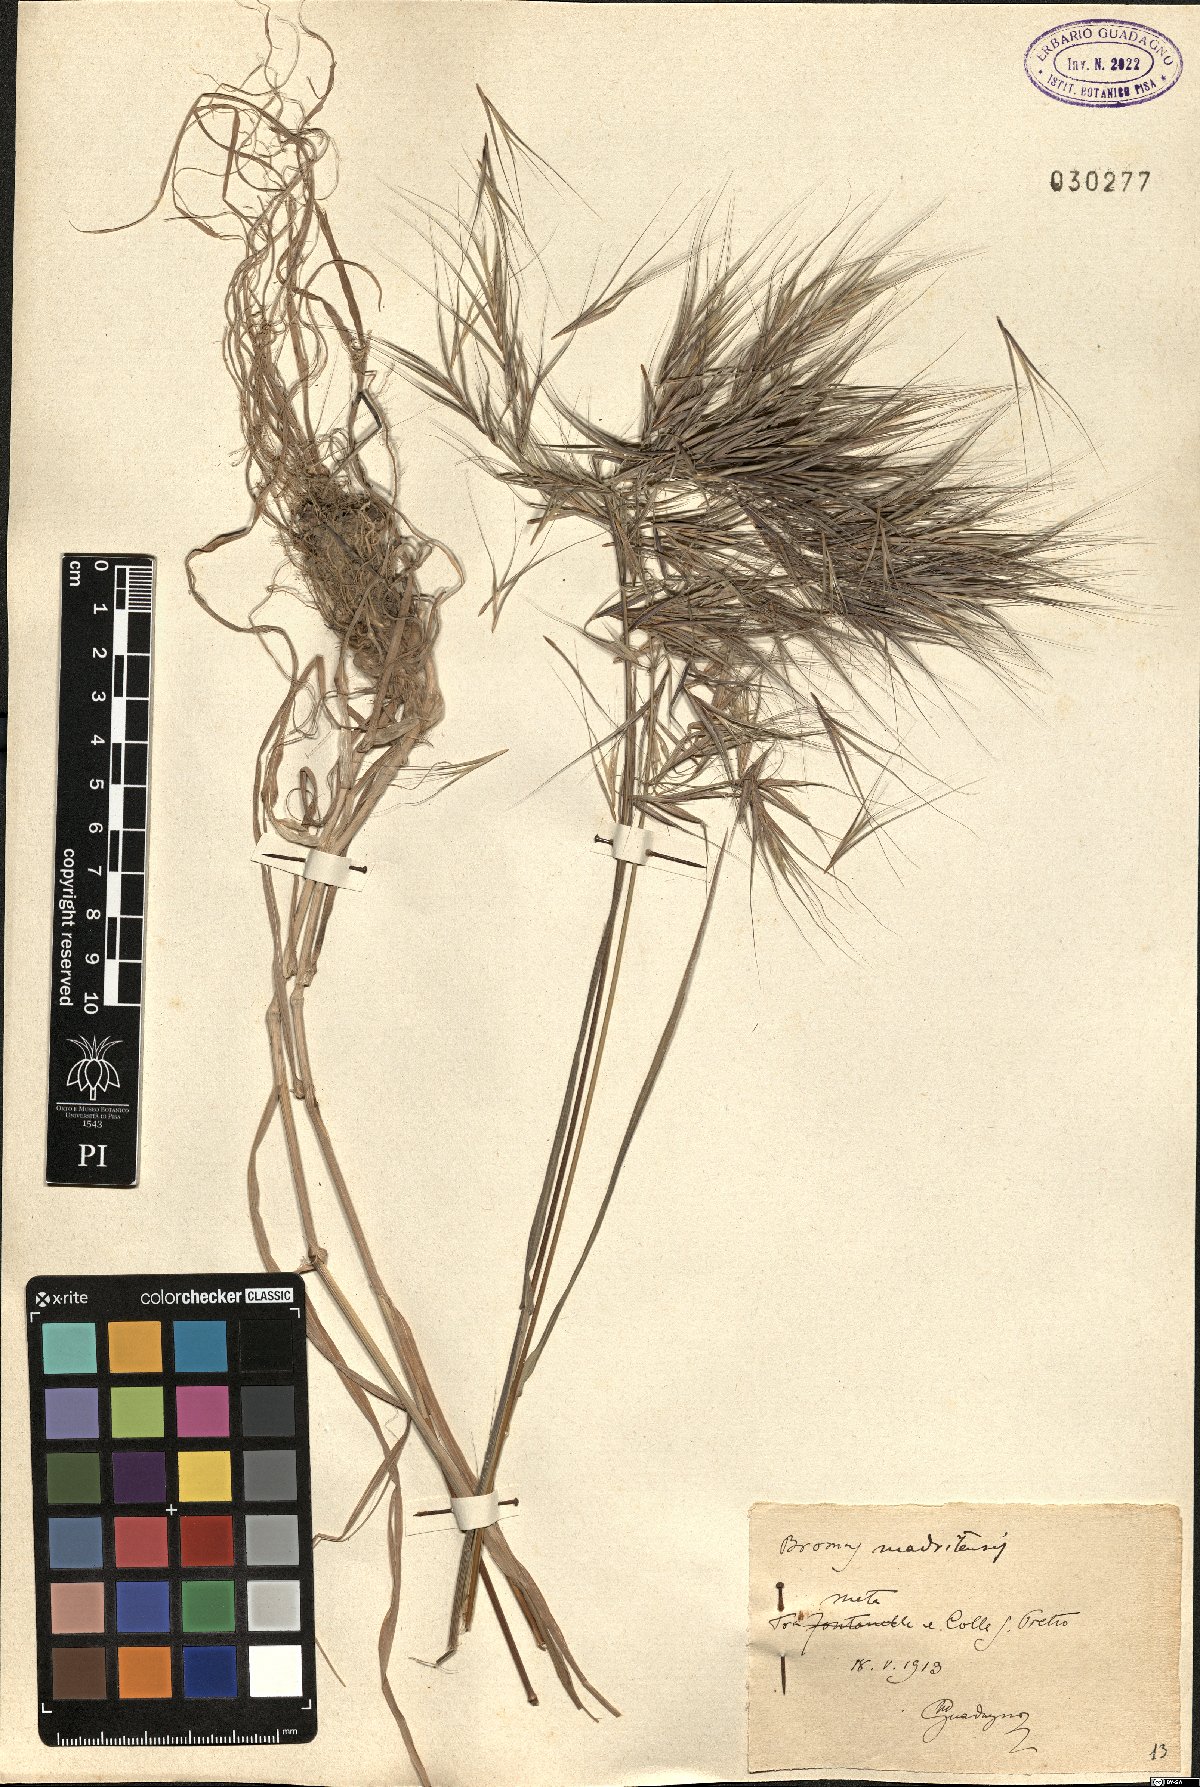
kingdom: Plantae
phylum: Tracheophyta
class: Liliopsida
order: Poales
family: Poaceae
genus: Bromus
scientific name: Bromus madritensis
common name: Compact brome
